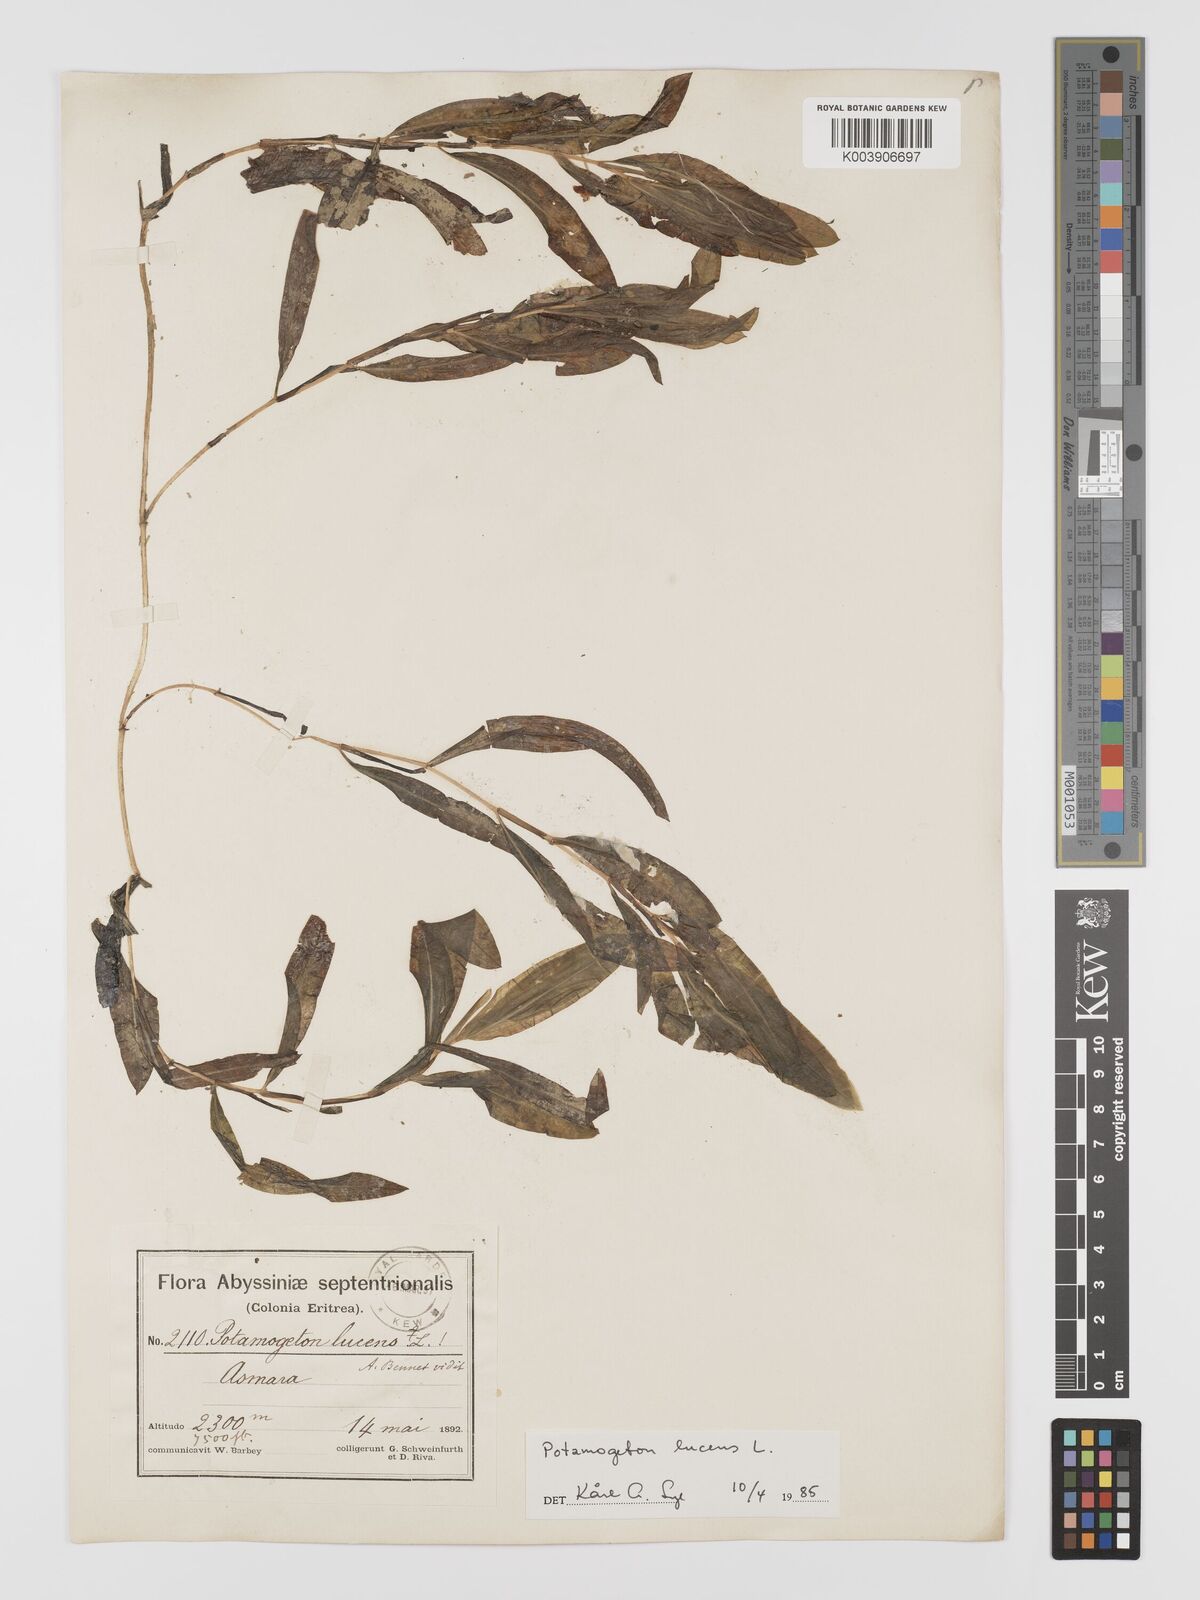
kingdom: Plantae
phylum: Tracheophyta
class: Liliopsida
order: Alismatales
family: Potamogetonaceae
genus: Potamogeton
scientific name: Potamogeton schweinfurthii
